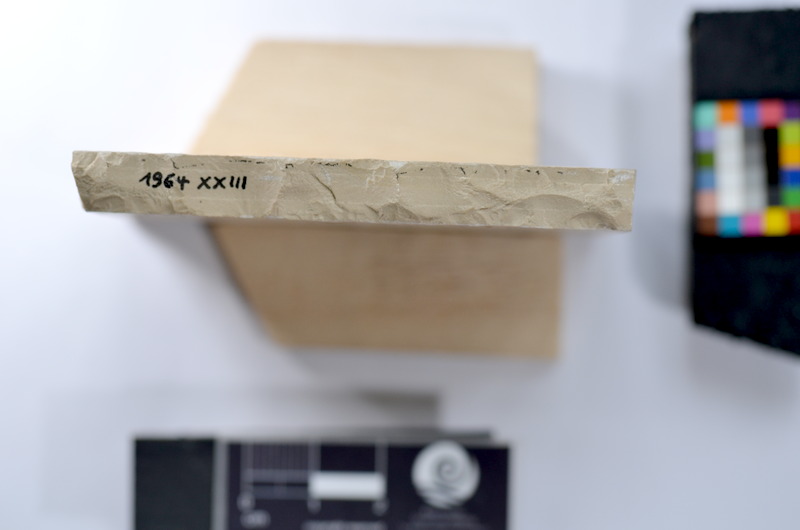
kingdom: Animalia
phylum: Chordata
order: Salmoniformes
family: Orthogonikleithridae
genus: Leptolepides
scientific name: Leptolepides sprattiformis
